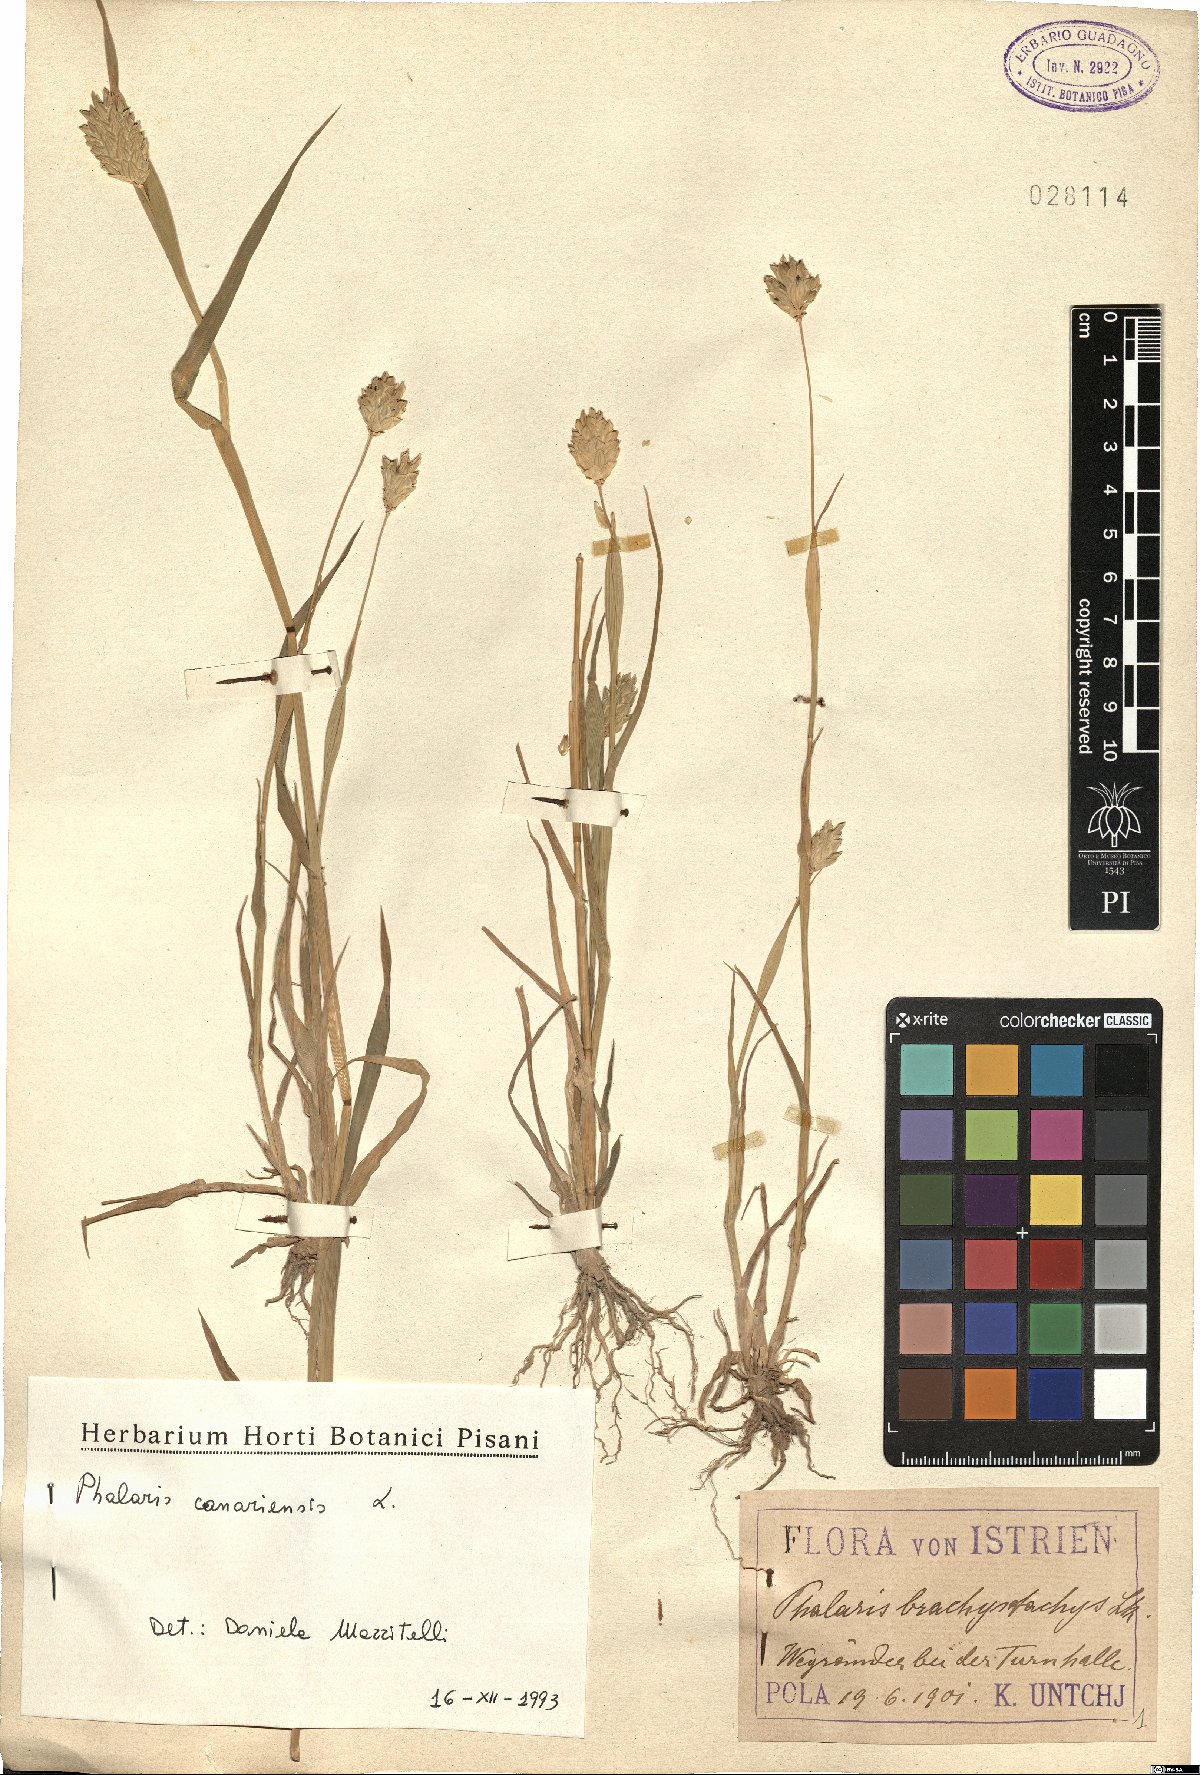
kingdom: Plantae
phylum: Tracheophyta
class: Liliopsida
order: Poales
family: Poaceae
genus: Phalaris
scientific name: Phalaris canariensis
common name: Annual canarygrass
